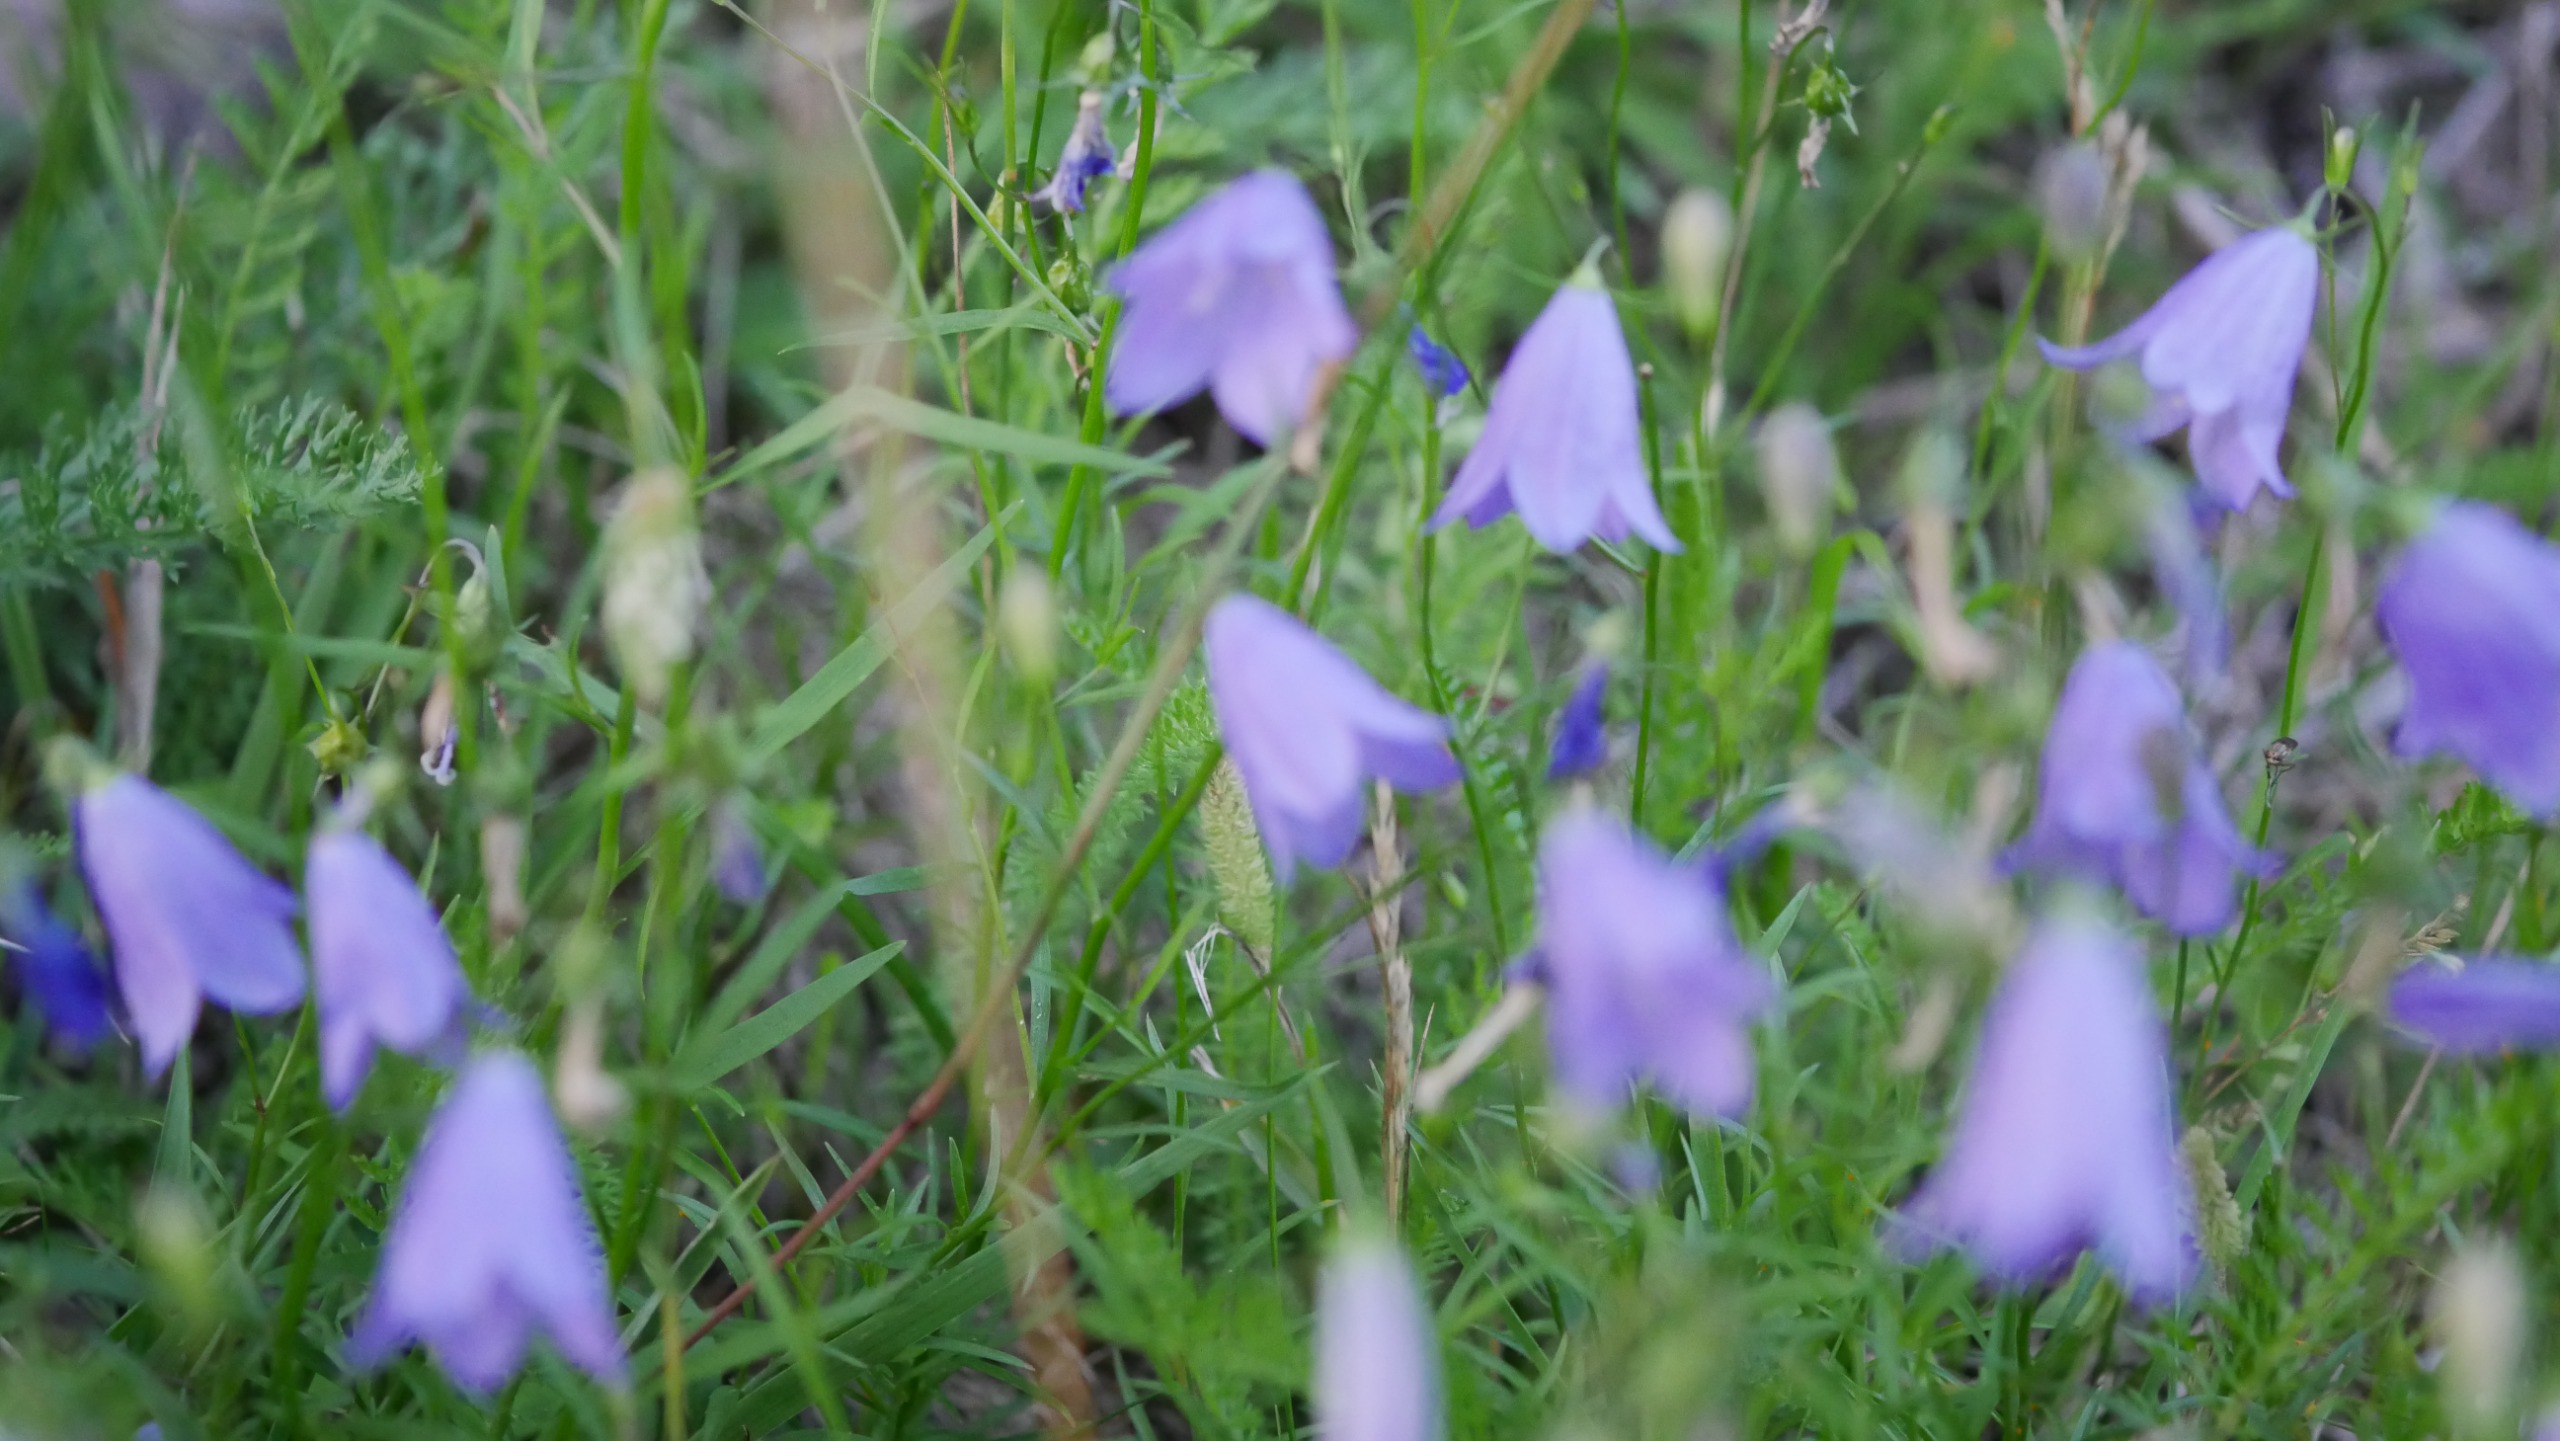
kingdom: Plantae
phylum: Tracheophyta
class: Magnoliopsida
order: Asterales
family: Campanulaceae
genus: Campanula
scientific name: Campanula rotundifolia
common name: Liden klokke
